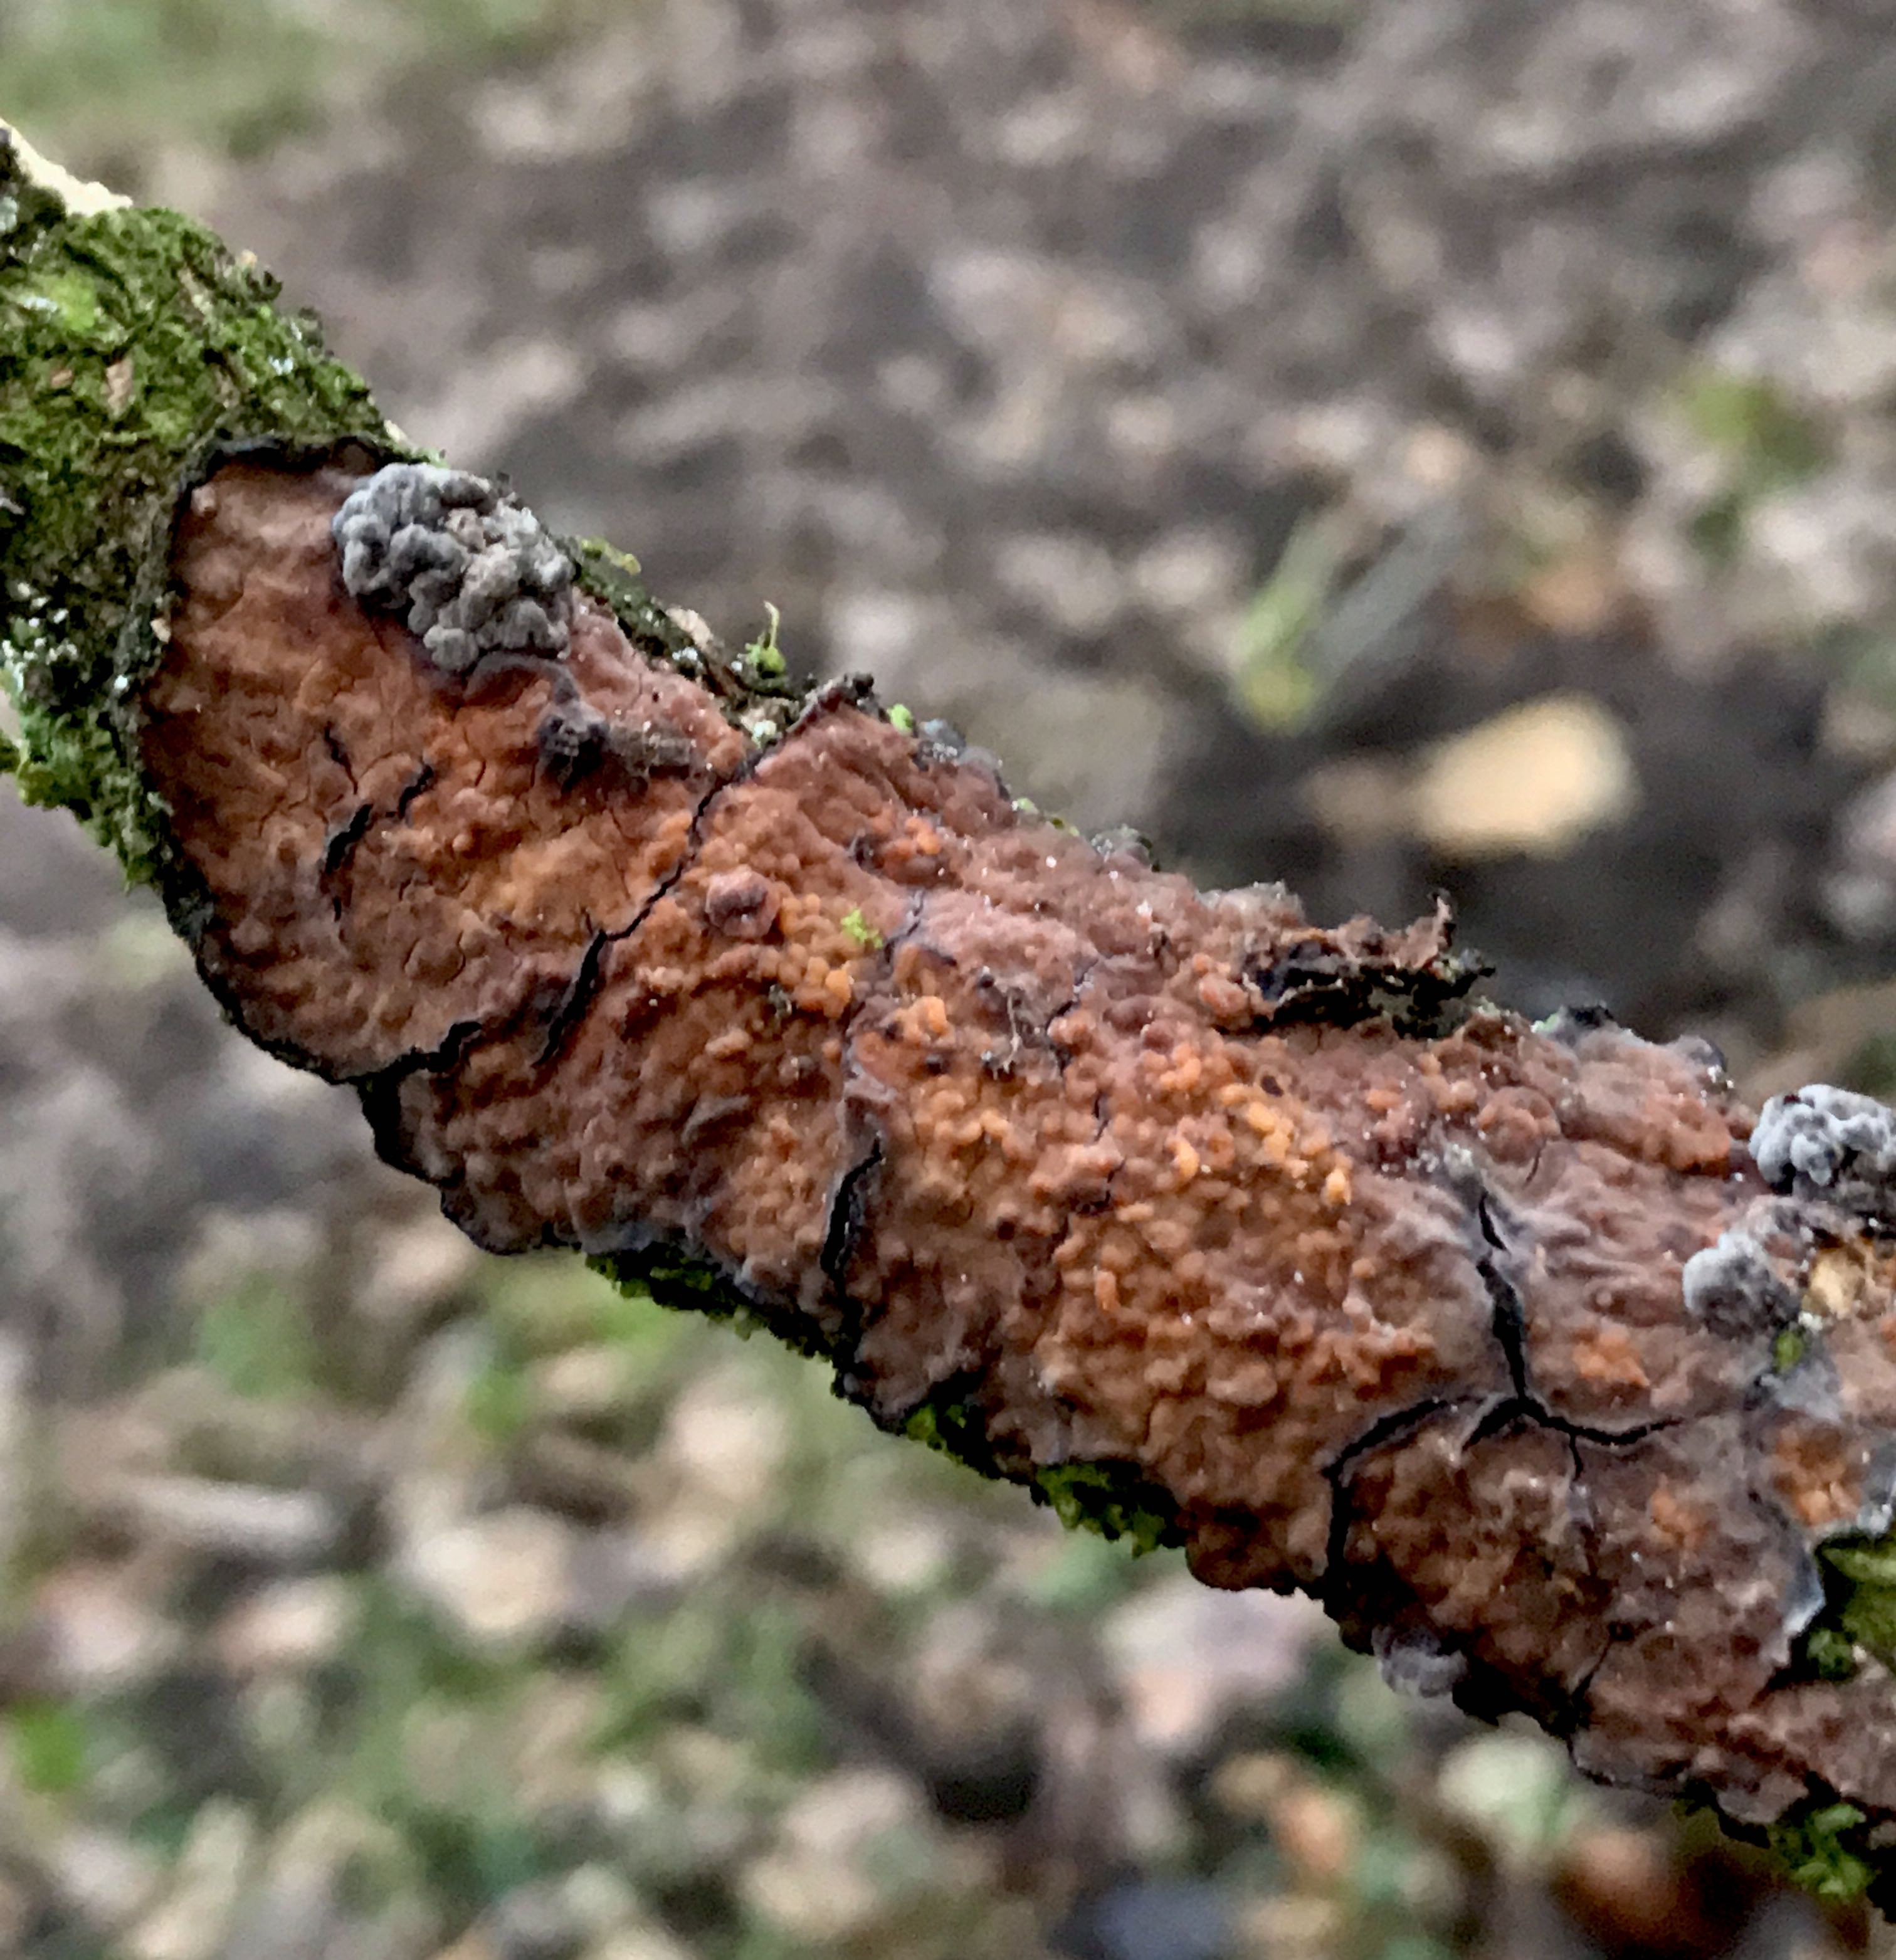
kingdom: Fungi
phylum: Basidiomycota
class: Agaricomycetes
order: Russulales
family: Peniophoraceae
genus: Peniophora
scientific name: Peniophora quercina
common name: ege-voksskind
